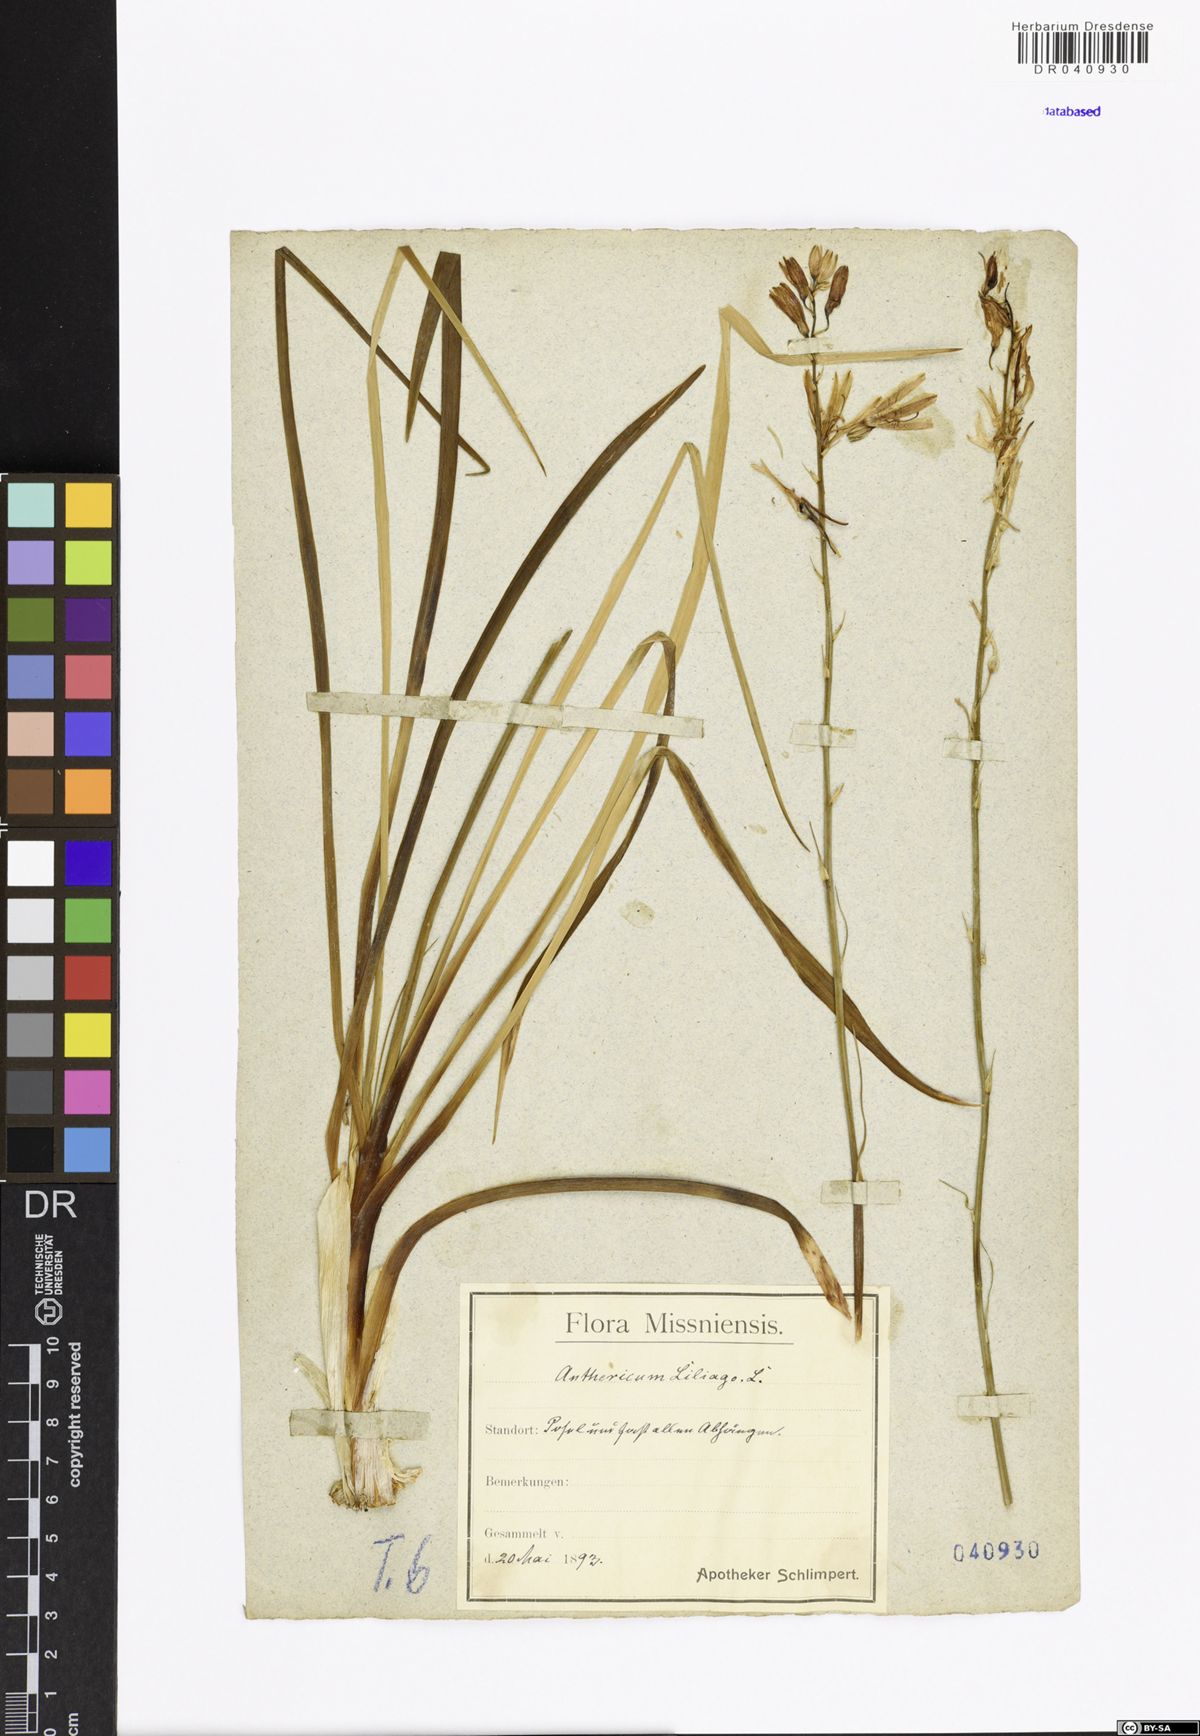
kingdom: Plantae
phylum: Tracheophyta
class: Liliopsida
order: Asparagales
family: Asparagaceae
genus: Anthericum
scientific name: Anthericum liliago
